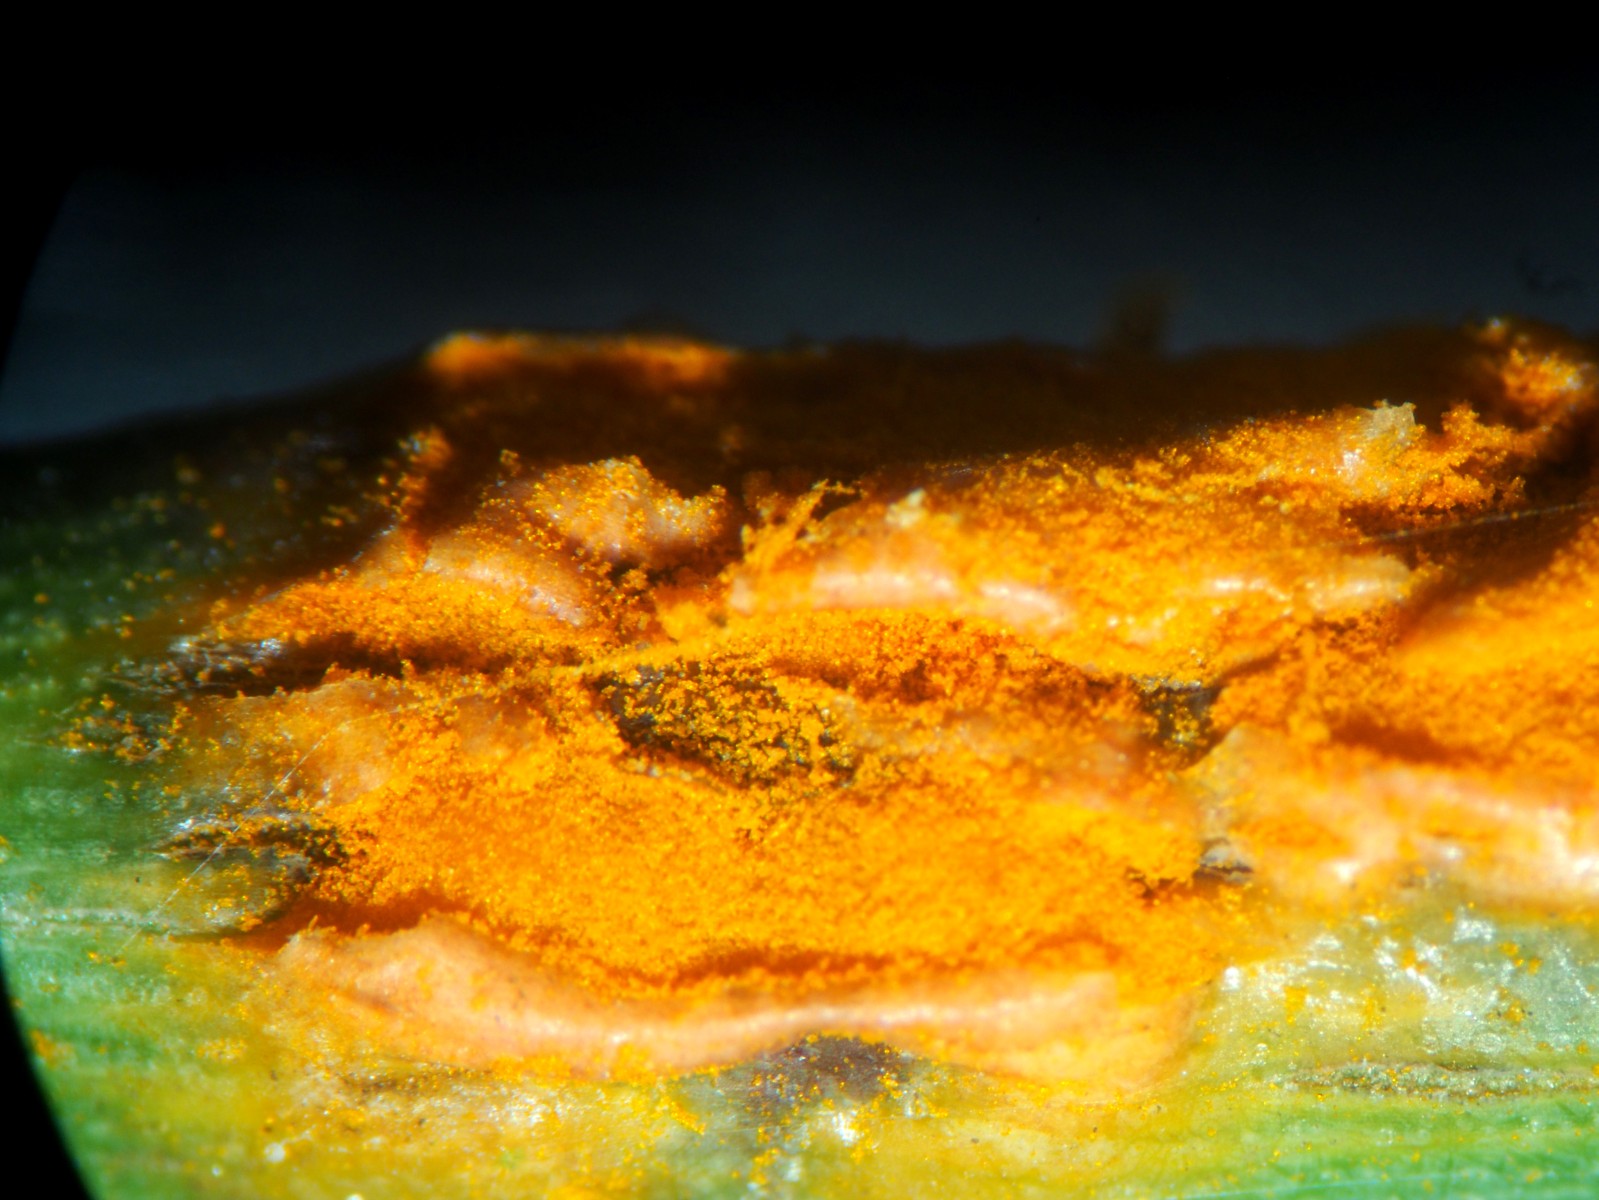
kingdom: Fungi
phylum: Basidiomycota
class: Pucciniomycetes
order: Pucciniales
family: Phragmidiaceae
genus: Phragmidium
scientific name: Phragmidium tuberculatum
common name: Rose rust
